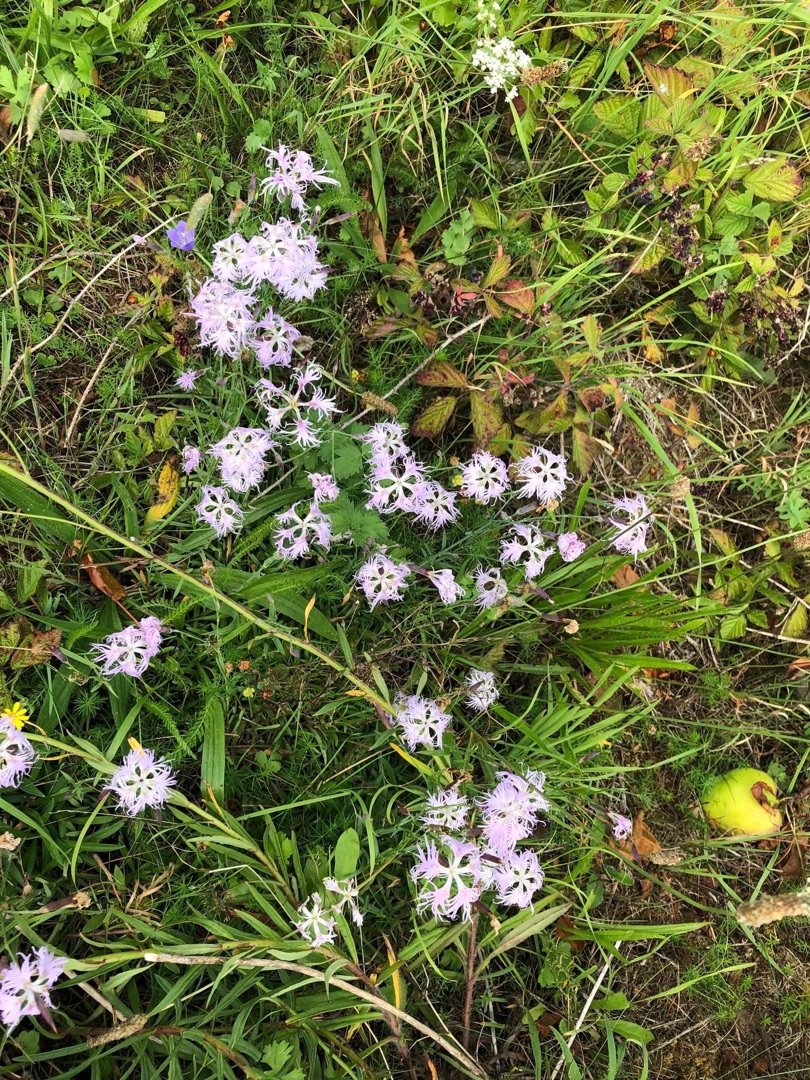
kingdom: Plantae
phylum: Tracheophyta
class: Magnoliopsida
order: Caryophyllales
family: Caryophyllaceae
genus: Dianthus
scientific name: Dianthus superbus
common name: Strand-nellike
